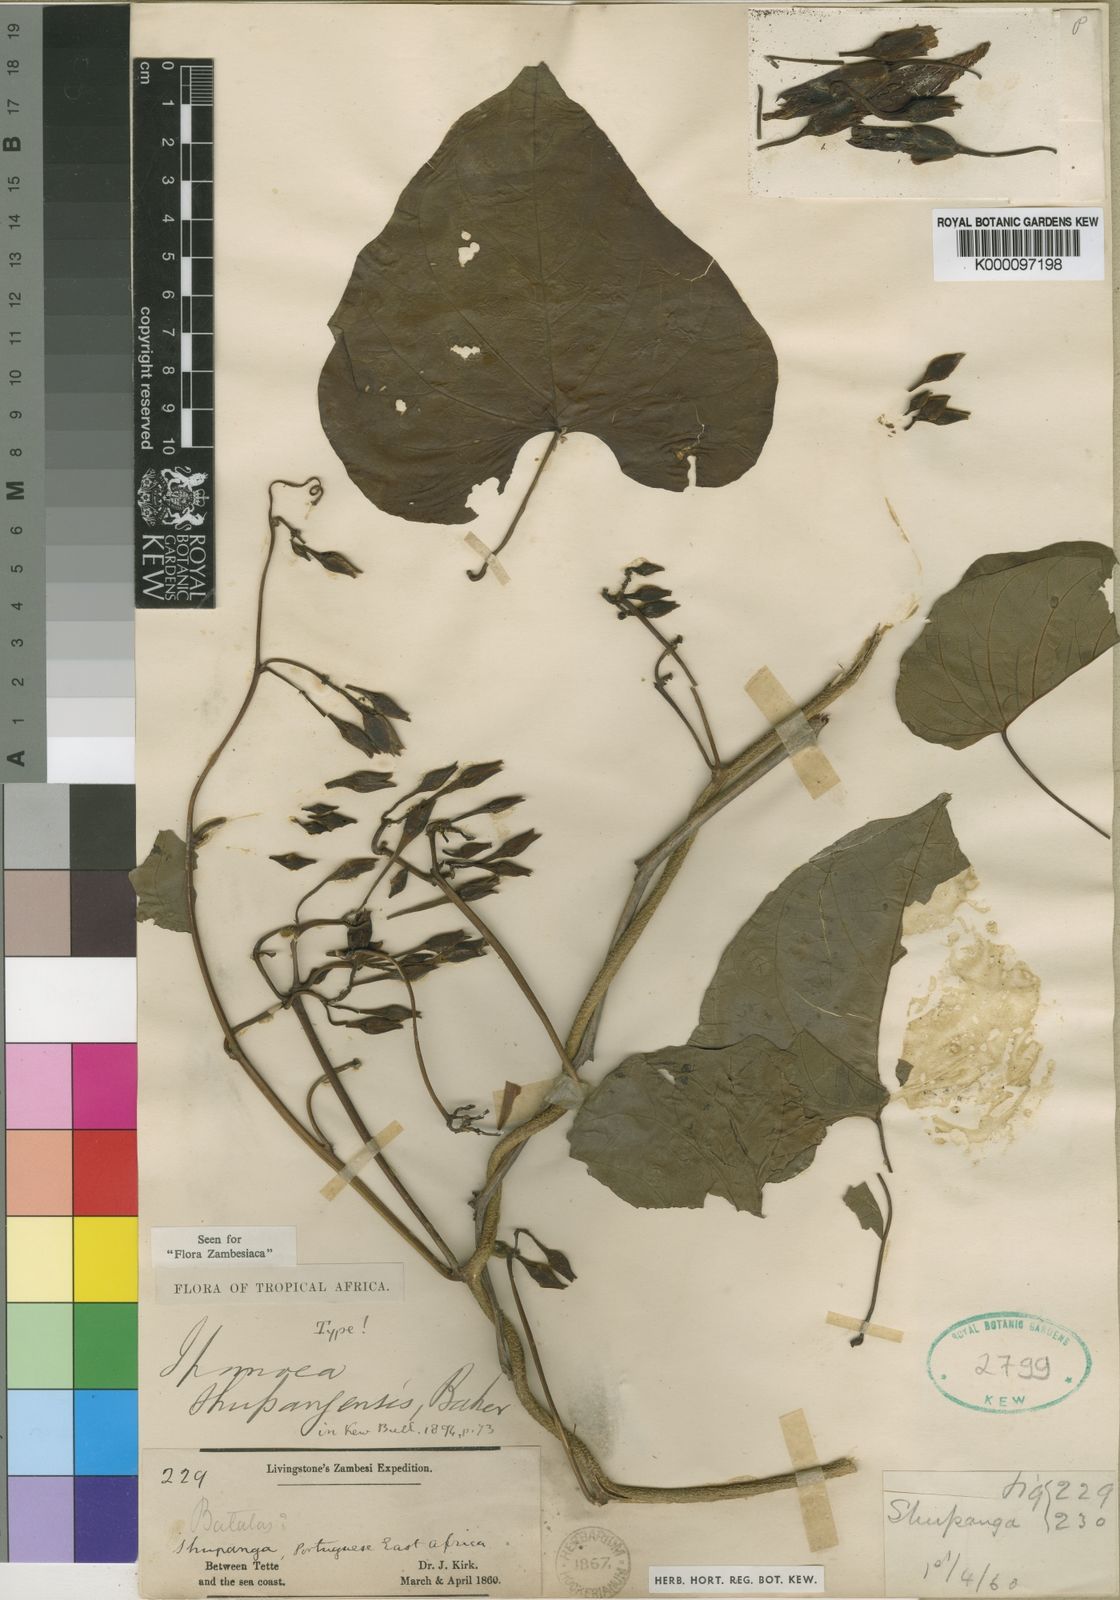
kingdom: Plantae
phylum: Tracheophyta
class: Magnoliopsida
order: Solanales
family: Convolvulaceae
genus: Ipomoea
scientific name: Ipomoea shupangensis
